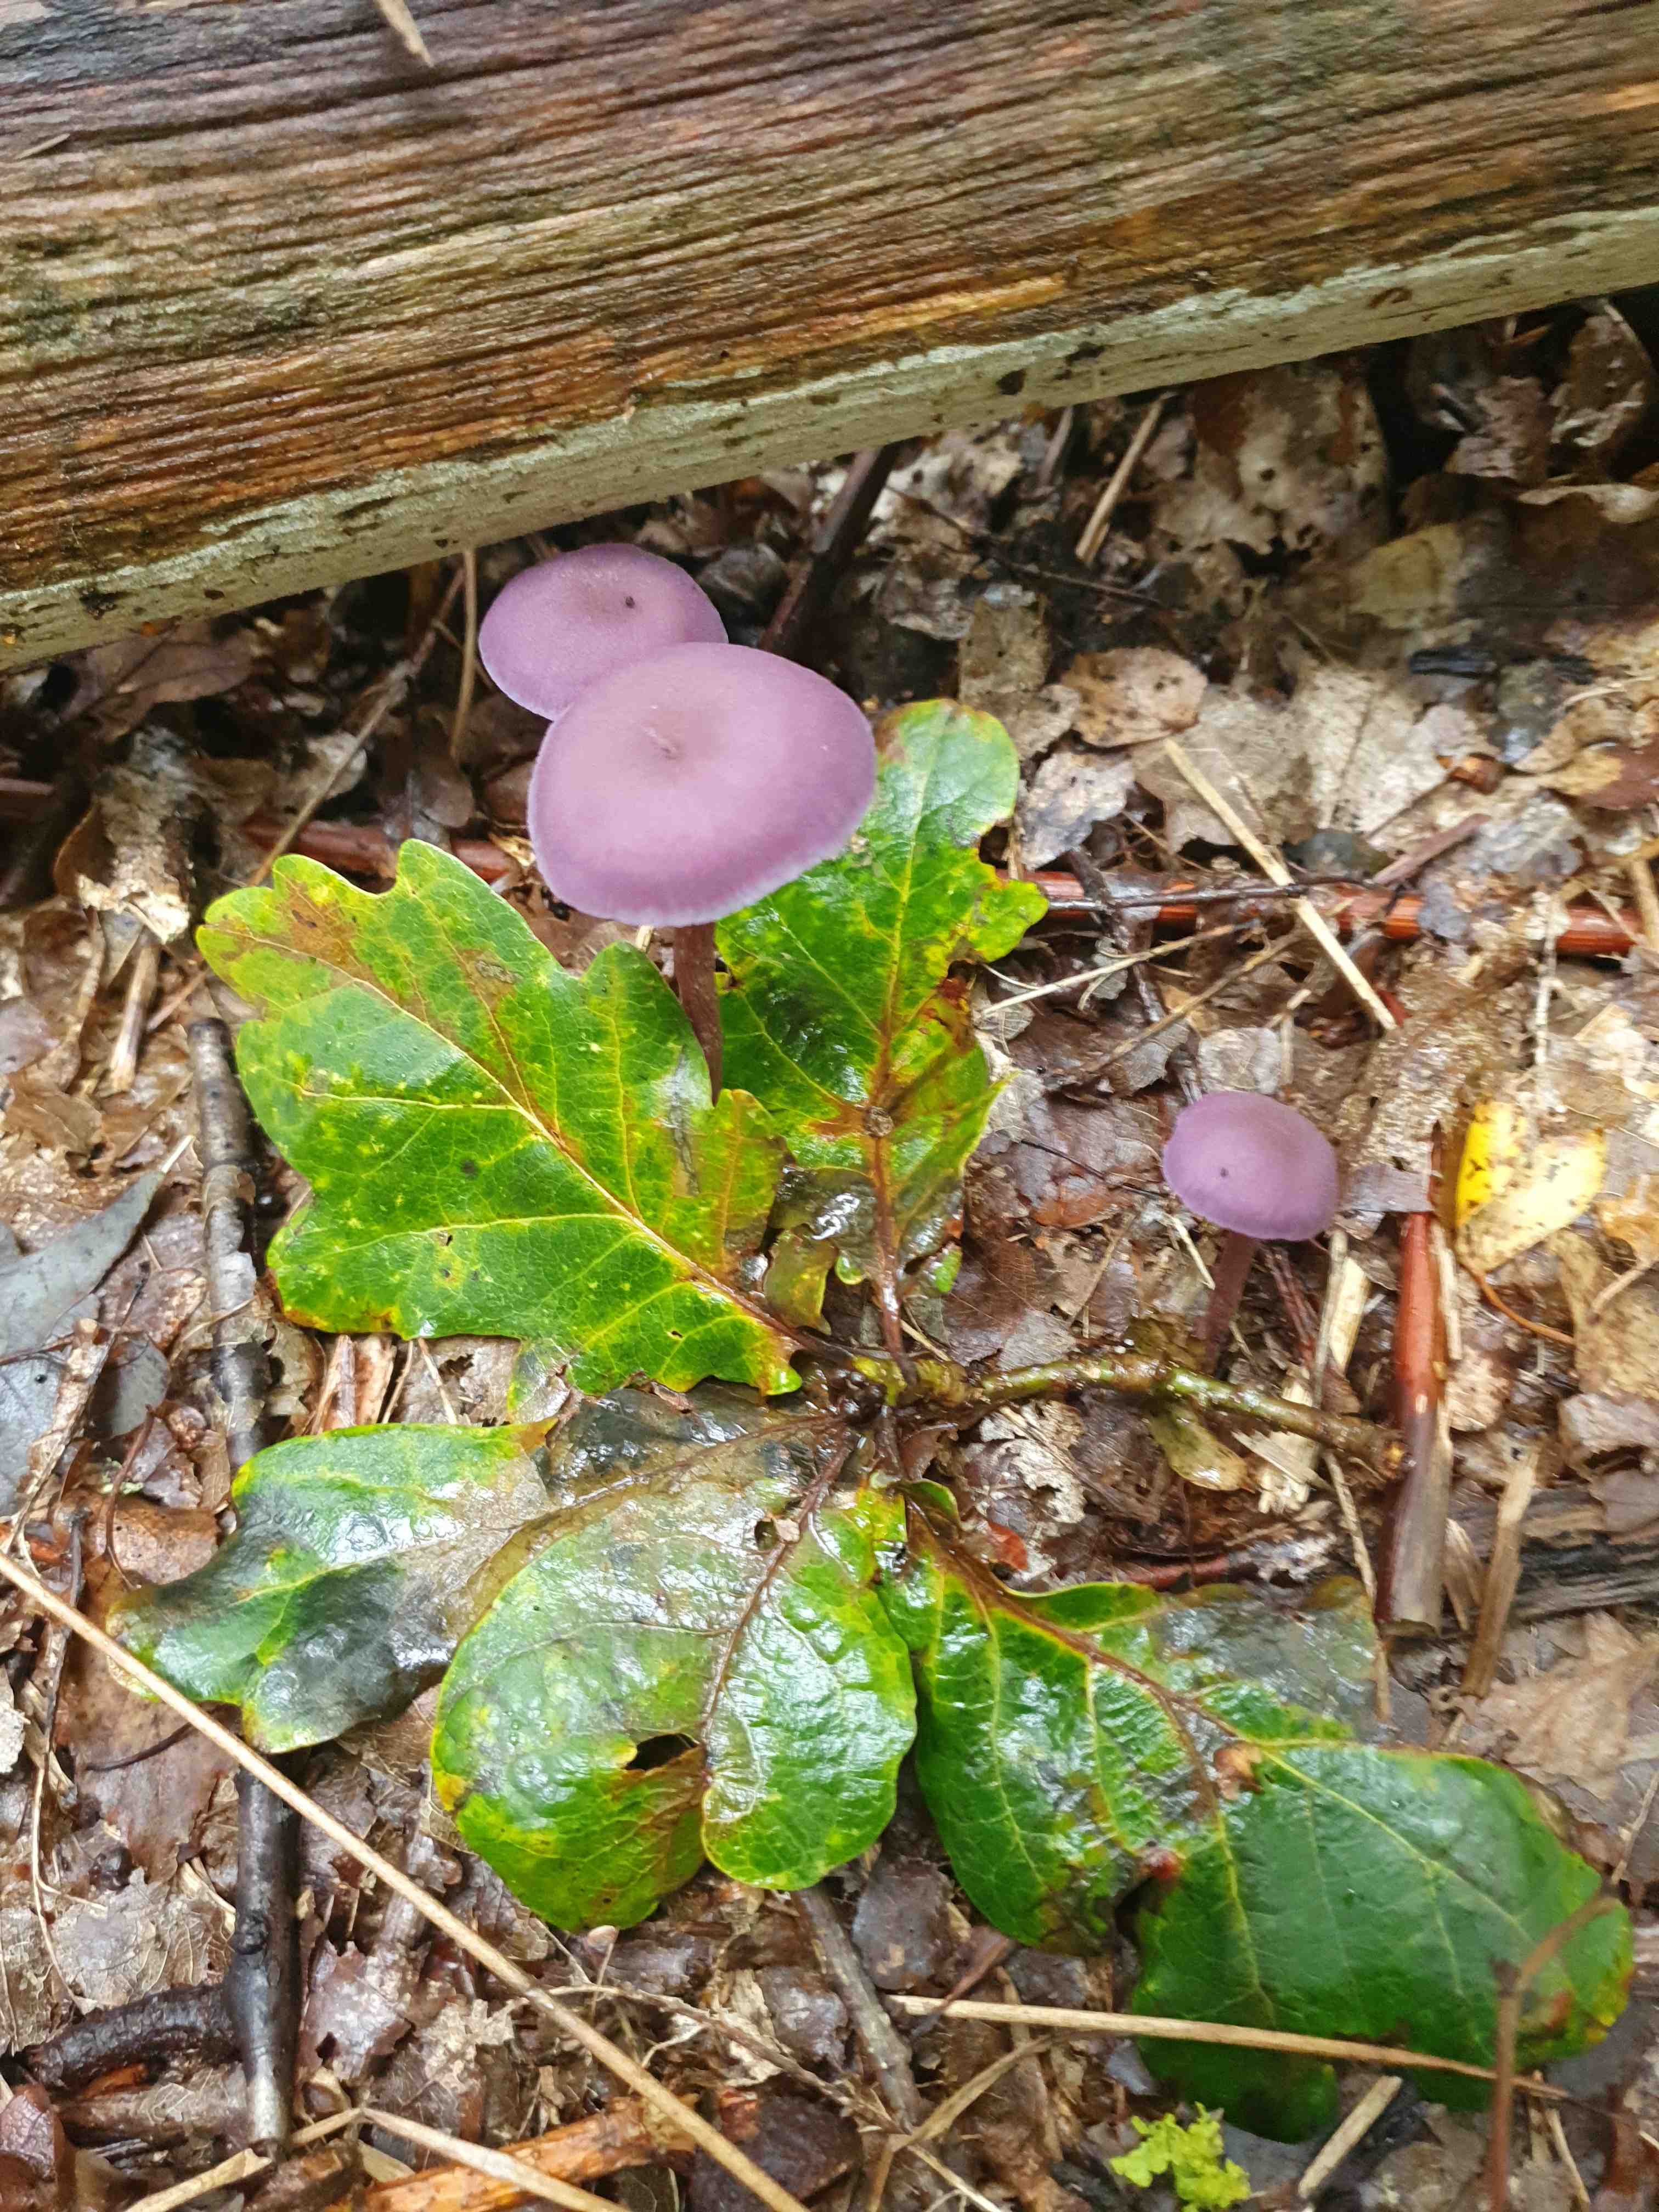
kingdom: Fungi
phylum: Basidiomycota
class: Agaricomycetes
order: Agaricales
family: Hydnangiaceae
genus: Laccaria
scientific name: Laccaria amethystina
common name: violet ametysthat
